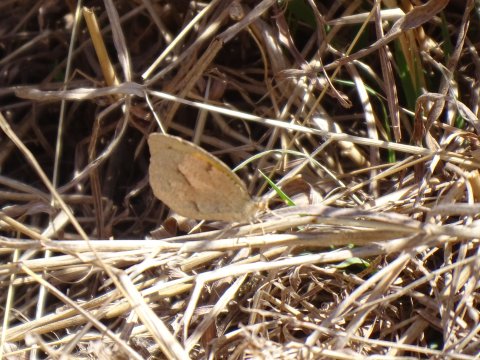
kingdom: Animalia
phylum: Arthropoda
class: Insecta
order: Lepidoptera
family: Pieridae
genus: Abaeis
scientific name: Abaeis nicippe
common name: Sleepy Orange
